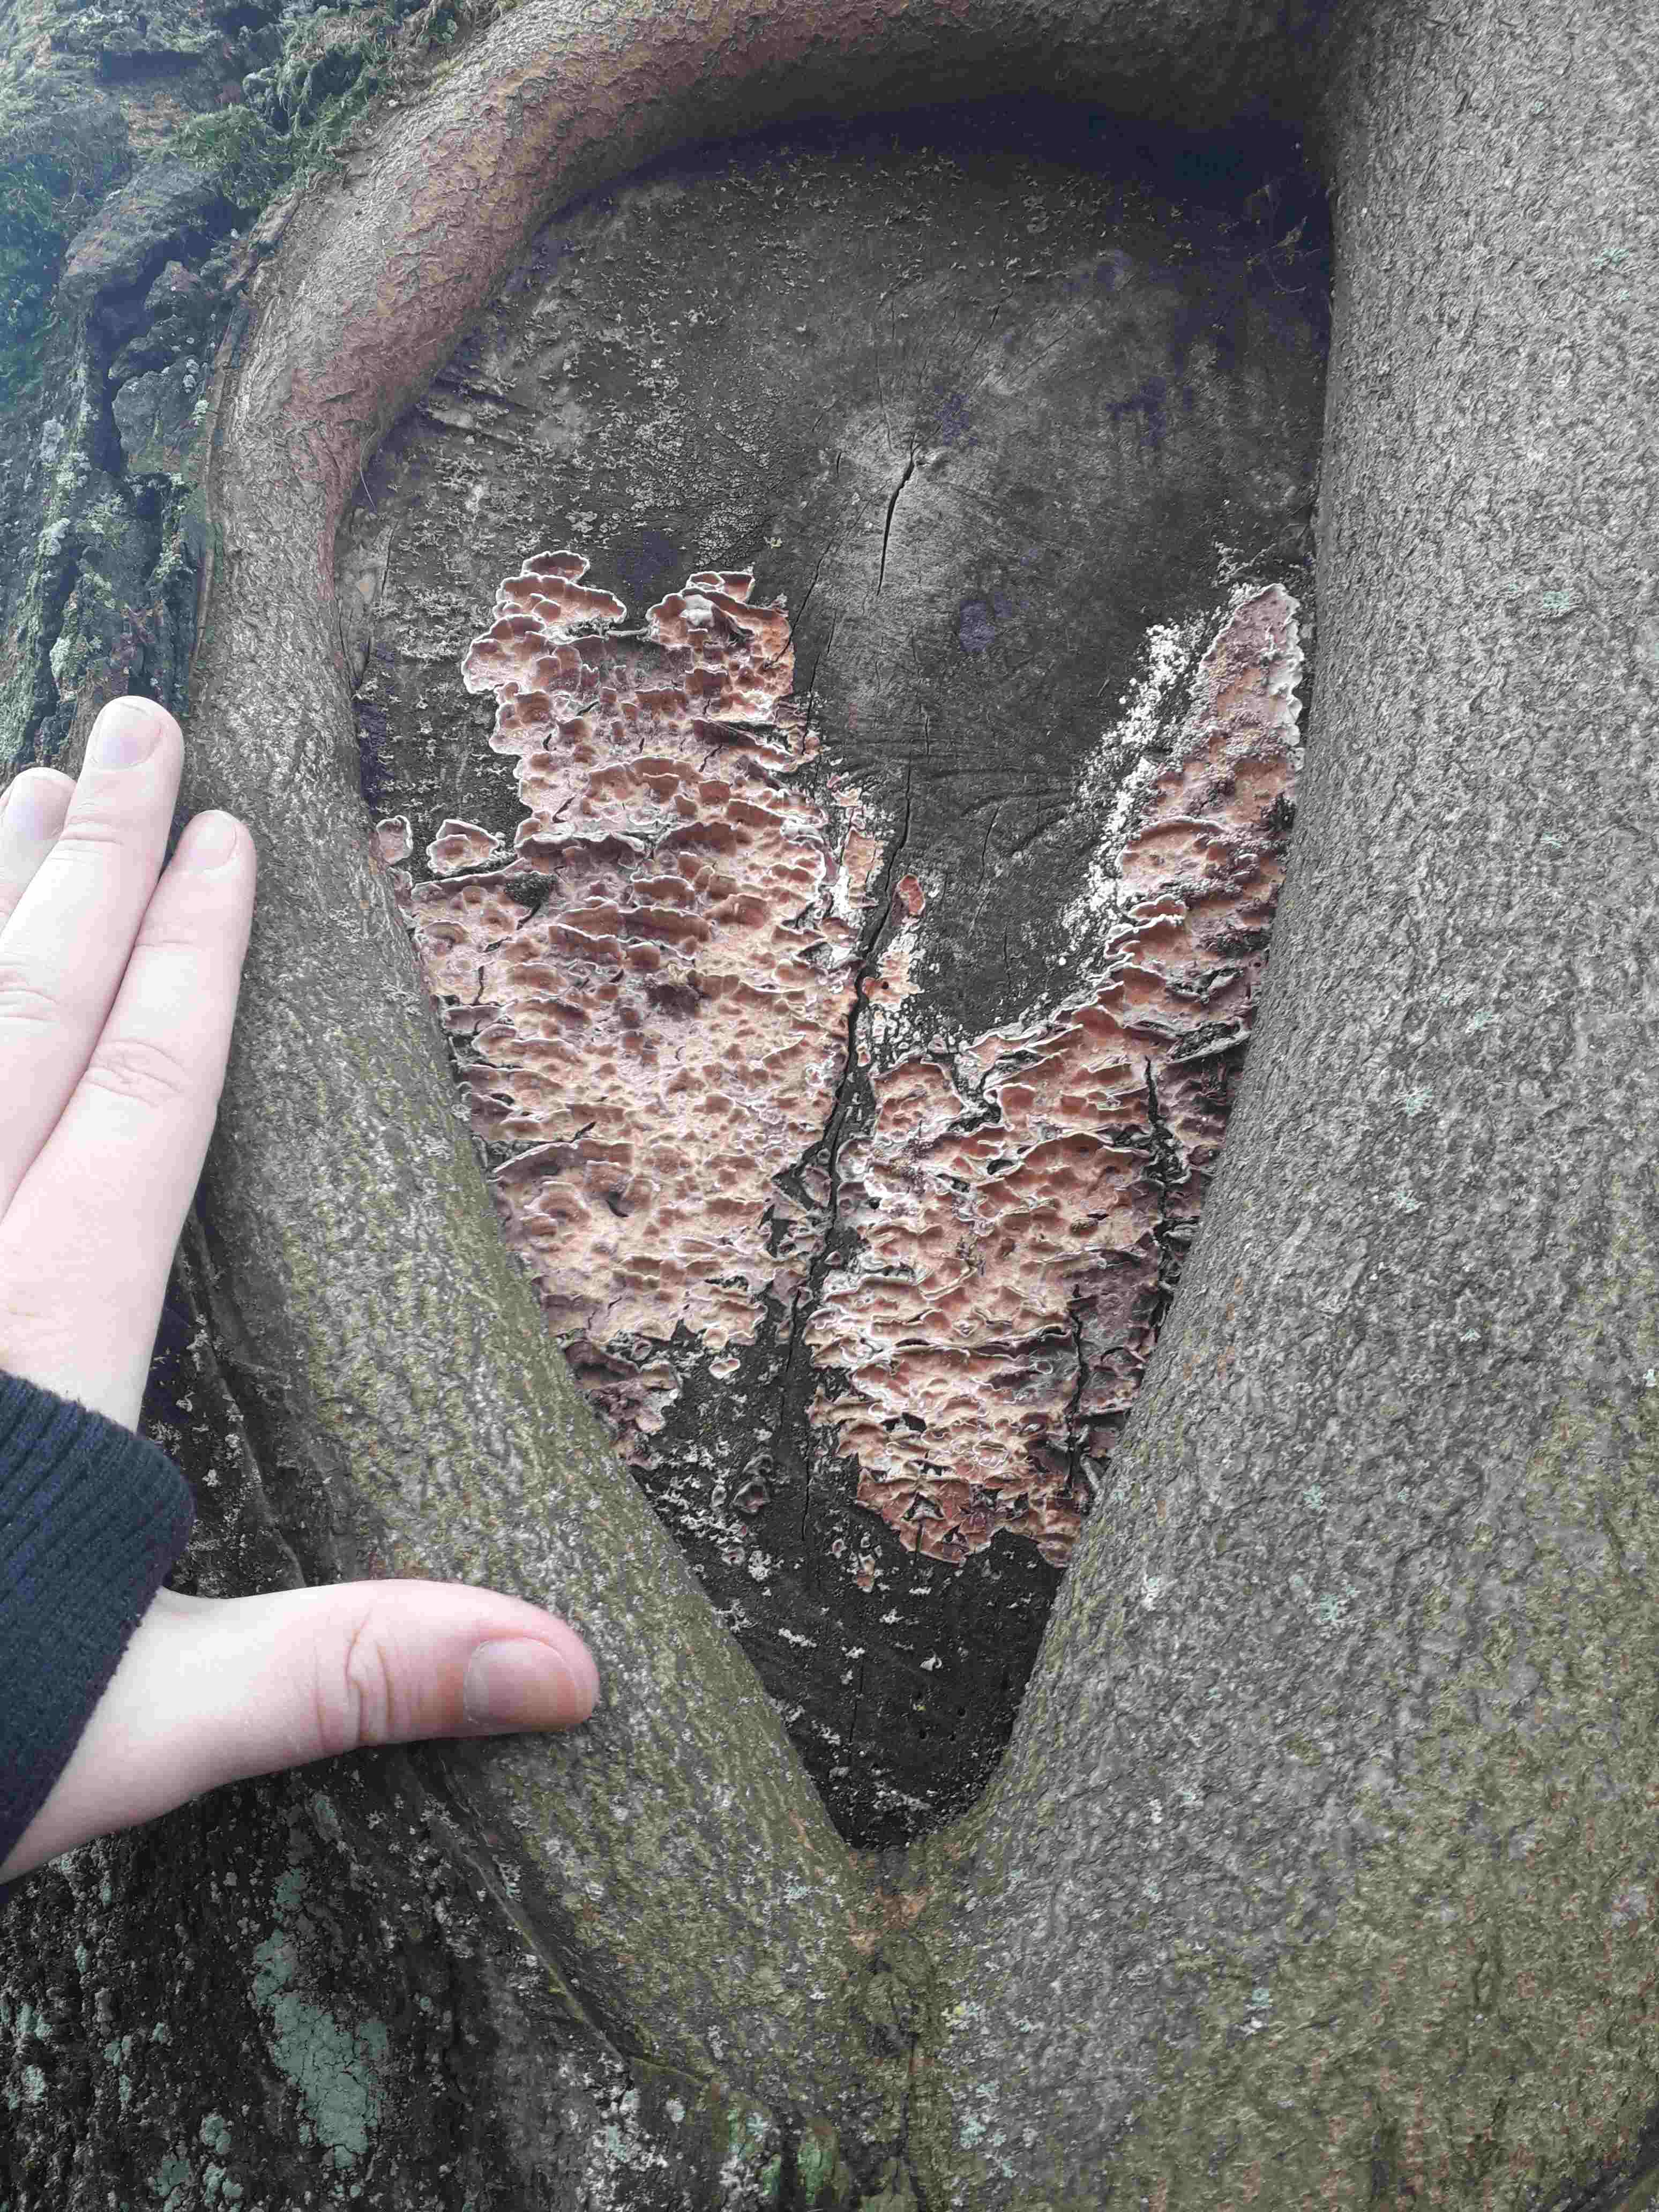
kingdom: Fungi
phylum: Basidiomycota
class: Agaricomycetes
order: Polyporales
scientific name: Polyporales
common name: poresvampordenen
